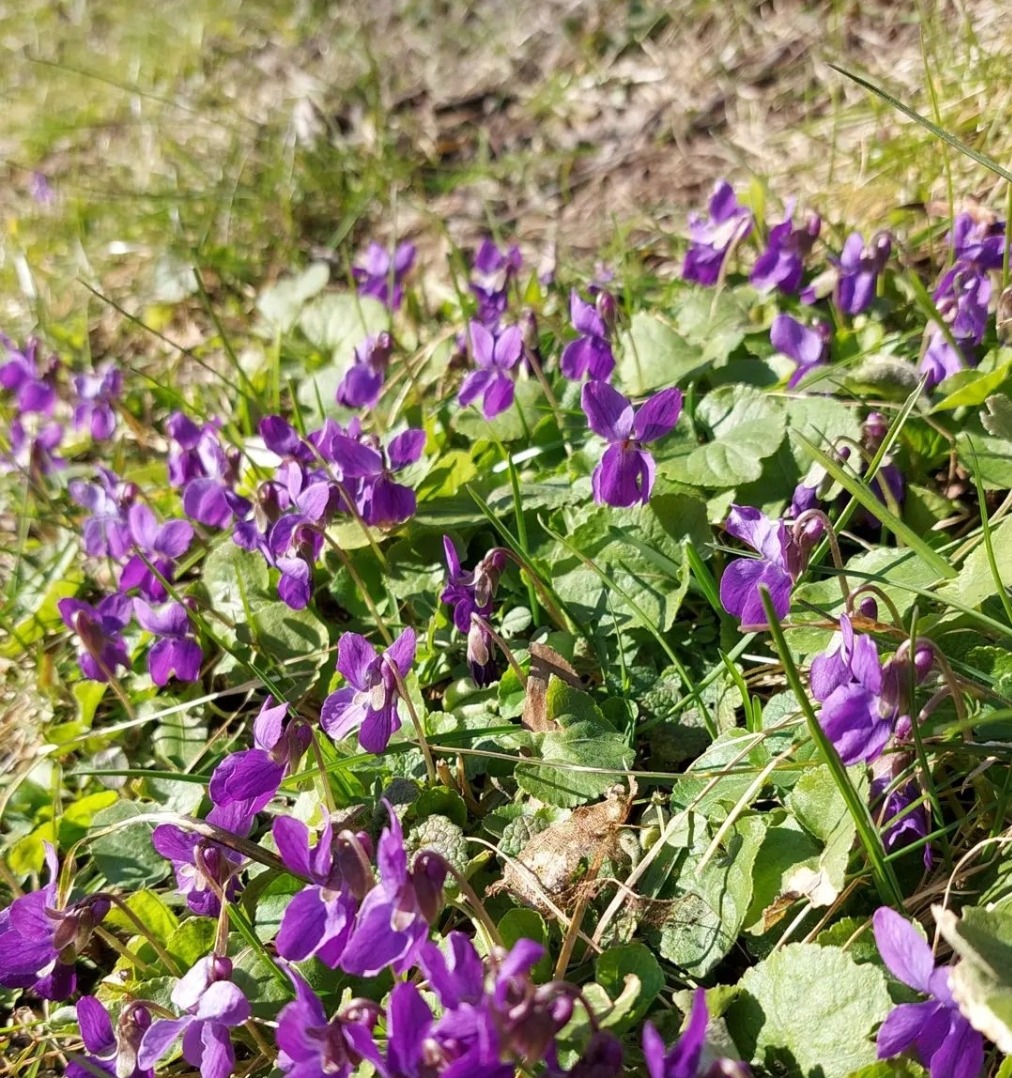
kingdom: Plantae
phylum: Tracheophyta
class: Magnoliopsida
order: Malpighiales
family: Violaceae
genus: Viola
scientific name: Viola odorata
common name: Marts-viol
